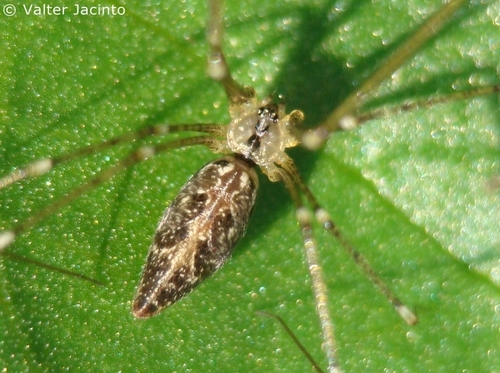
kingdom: Animalia
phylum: Arthropoda
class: Arachnida
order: Araneae
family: Pholcidae
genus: Holocnemus
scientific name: Holocnemus caudatus
